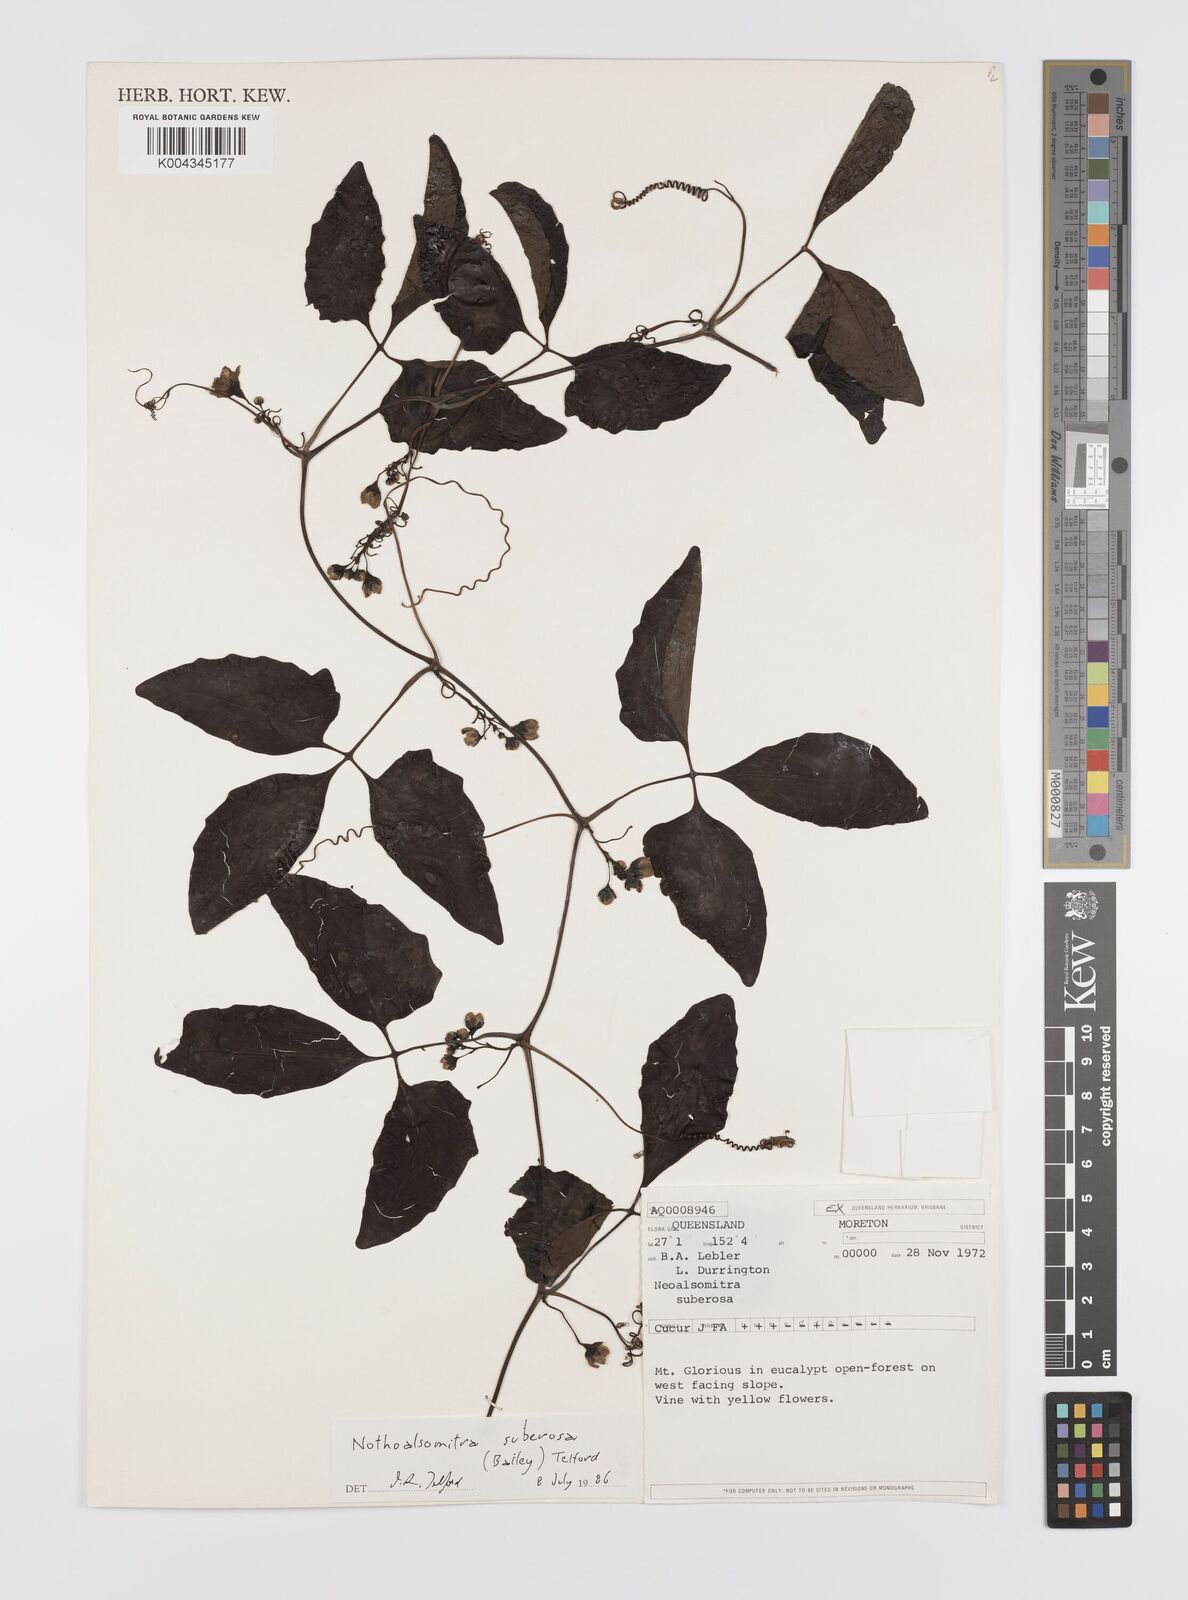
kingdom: Plantae
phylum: Tracheophyta
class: Magnoliopsida
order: Cucurbitales
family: Cucurbitaceae
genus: Nothoalsomitra
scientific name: Nothoalsomitra suberosa
